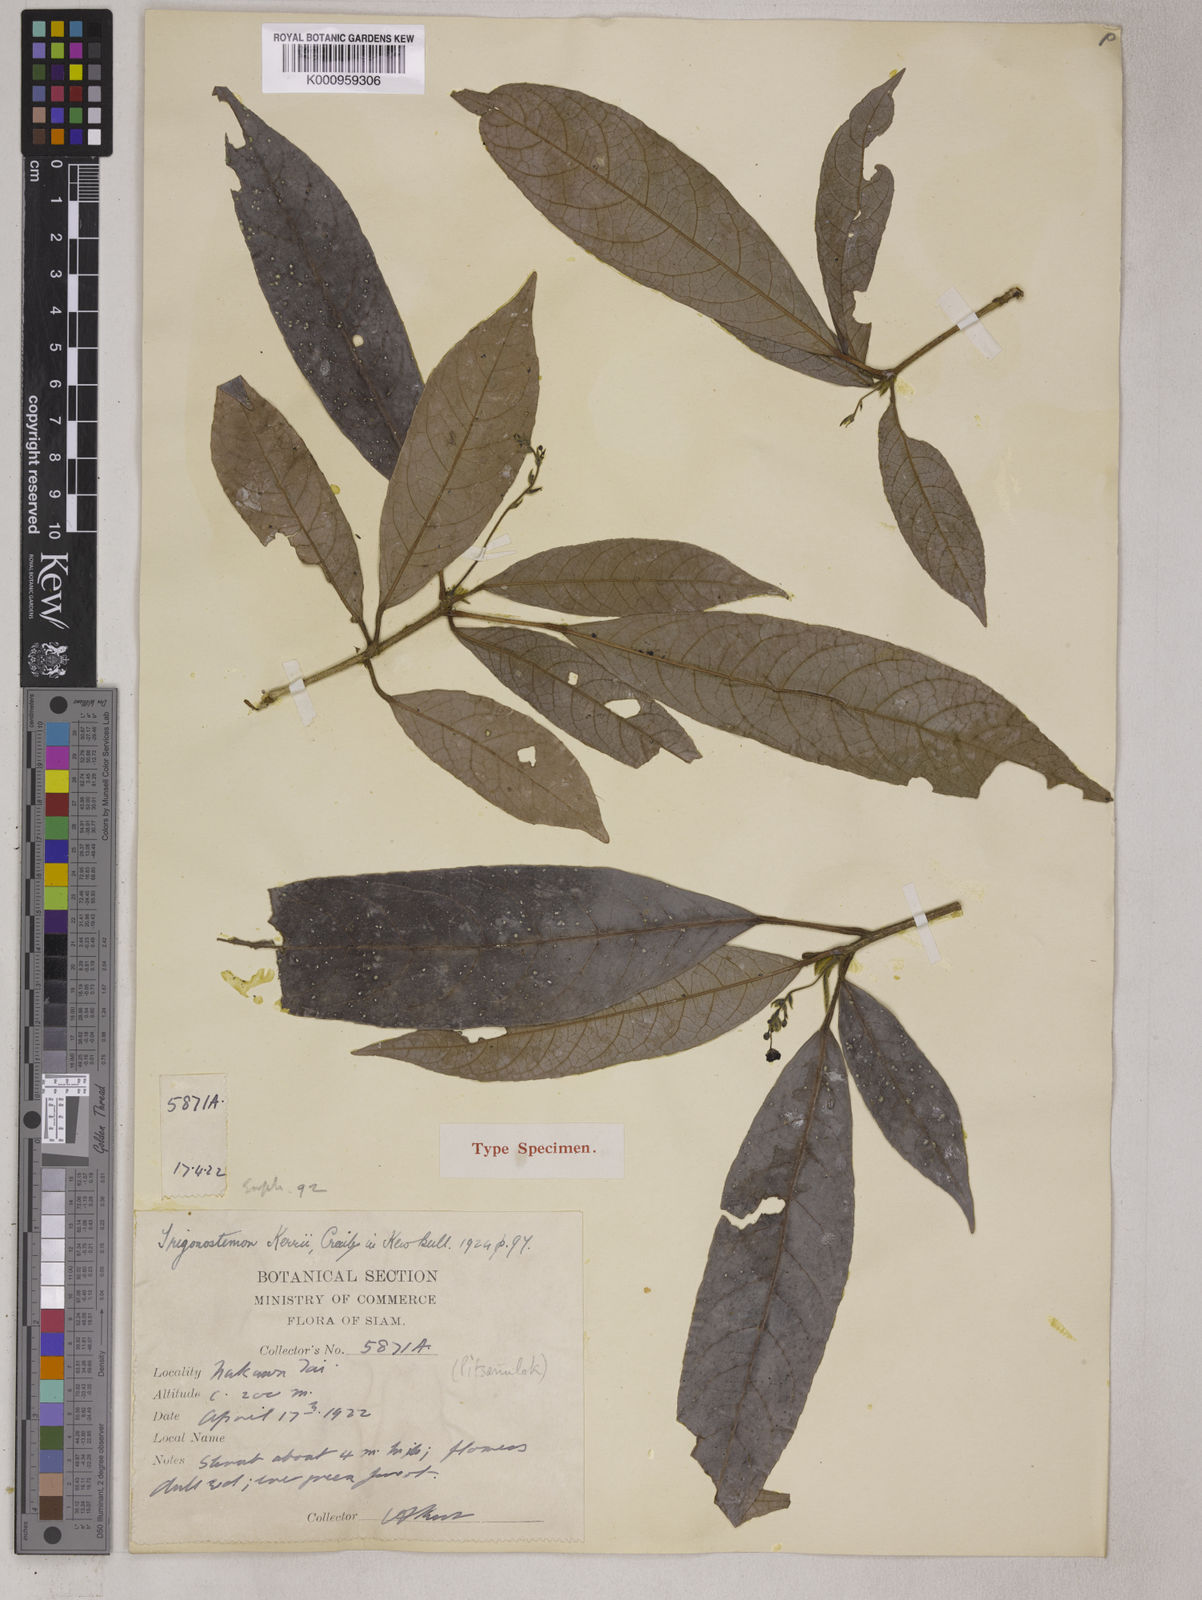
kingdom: Plantae
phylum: Tracheophyta
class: Magnoliopsida
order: Malpighiales
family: Euphorbiaceae
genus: Trigonostemon
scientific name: Trigonostemon kerrii
